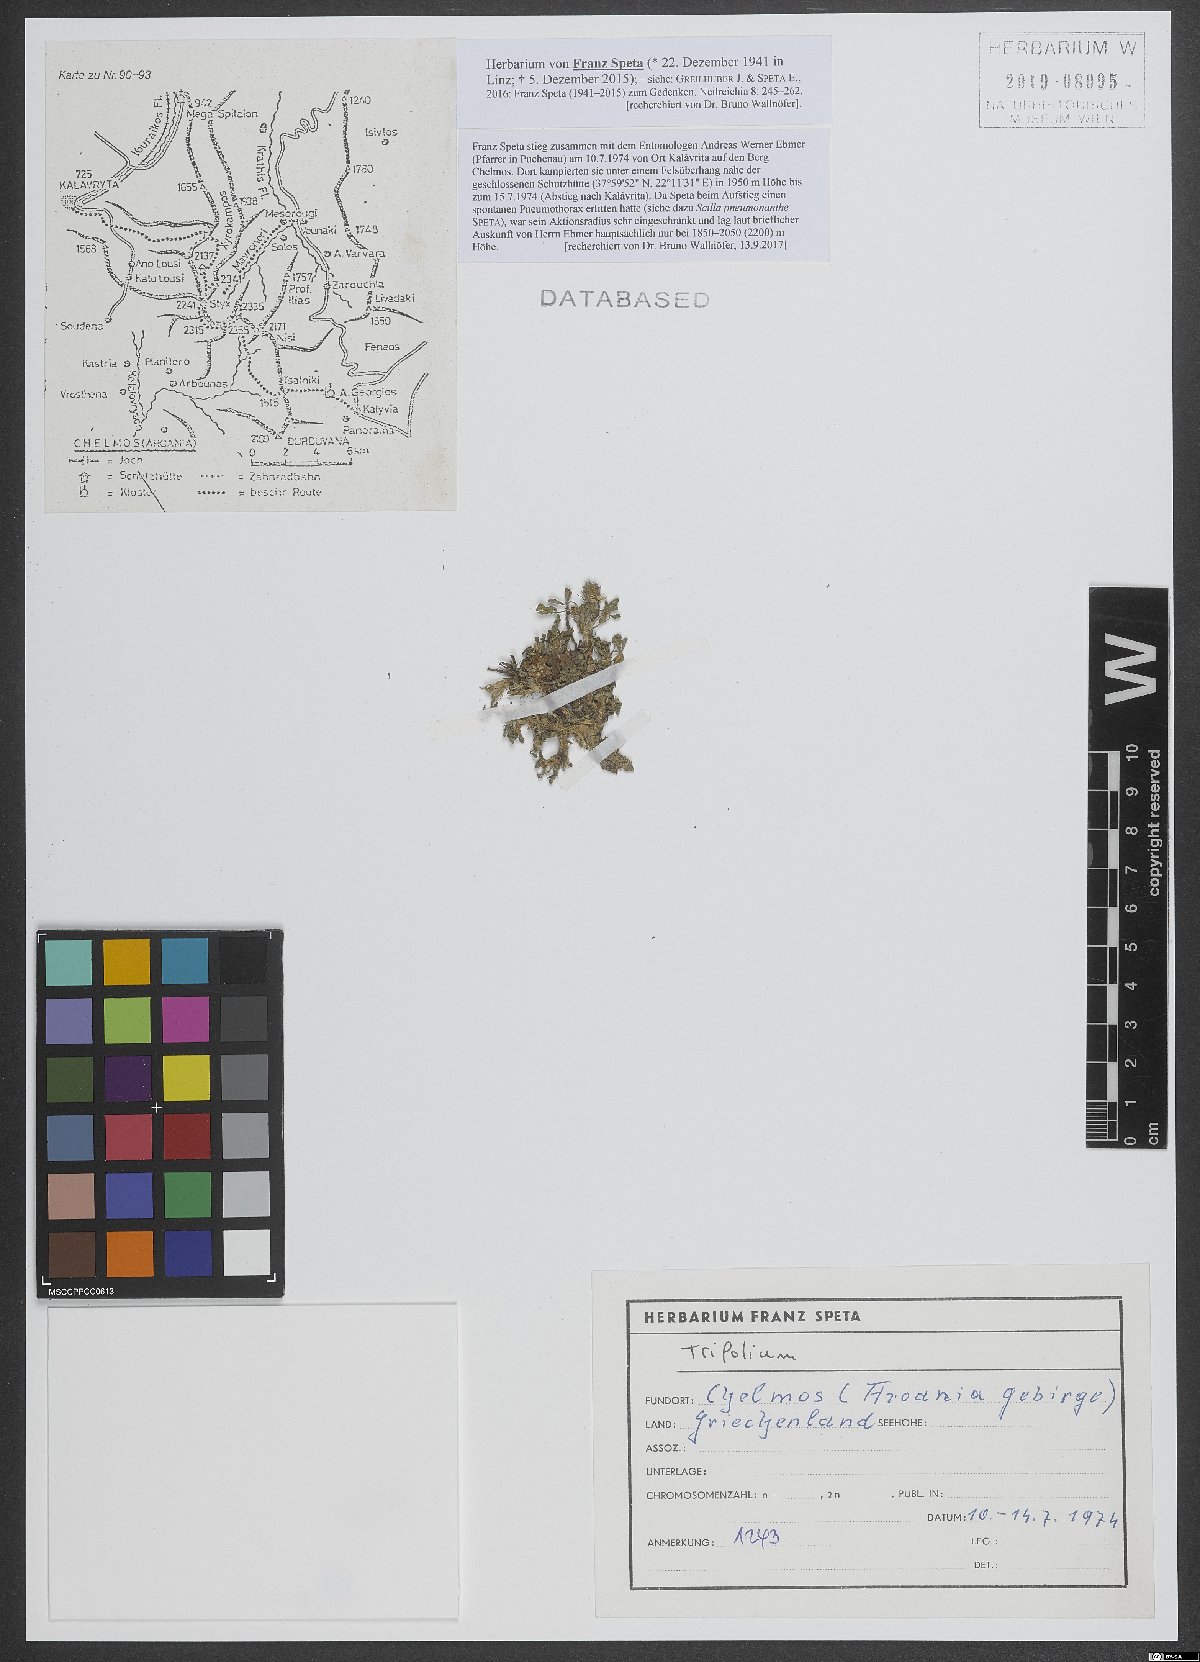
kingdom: Plantae
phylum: Tracheophyta
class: Magnoliopsida
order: Fabales
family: Fabaceae
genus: Trifolium
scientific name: Trifolium
